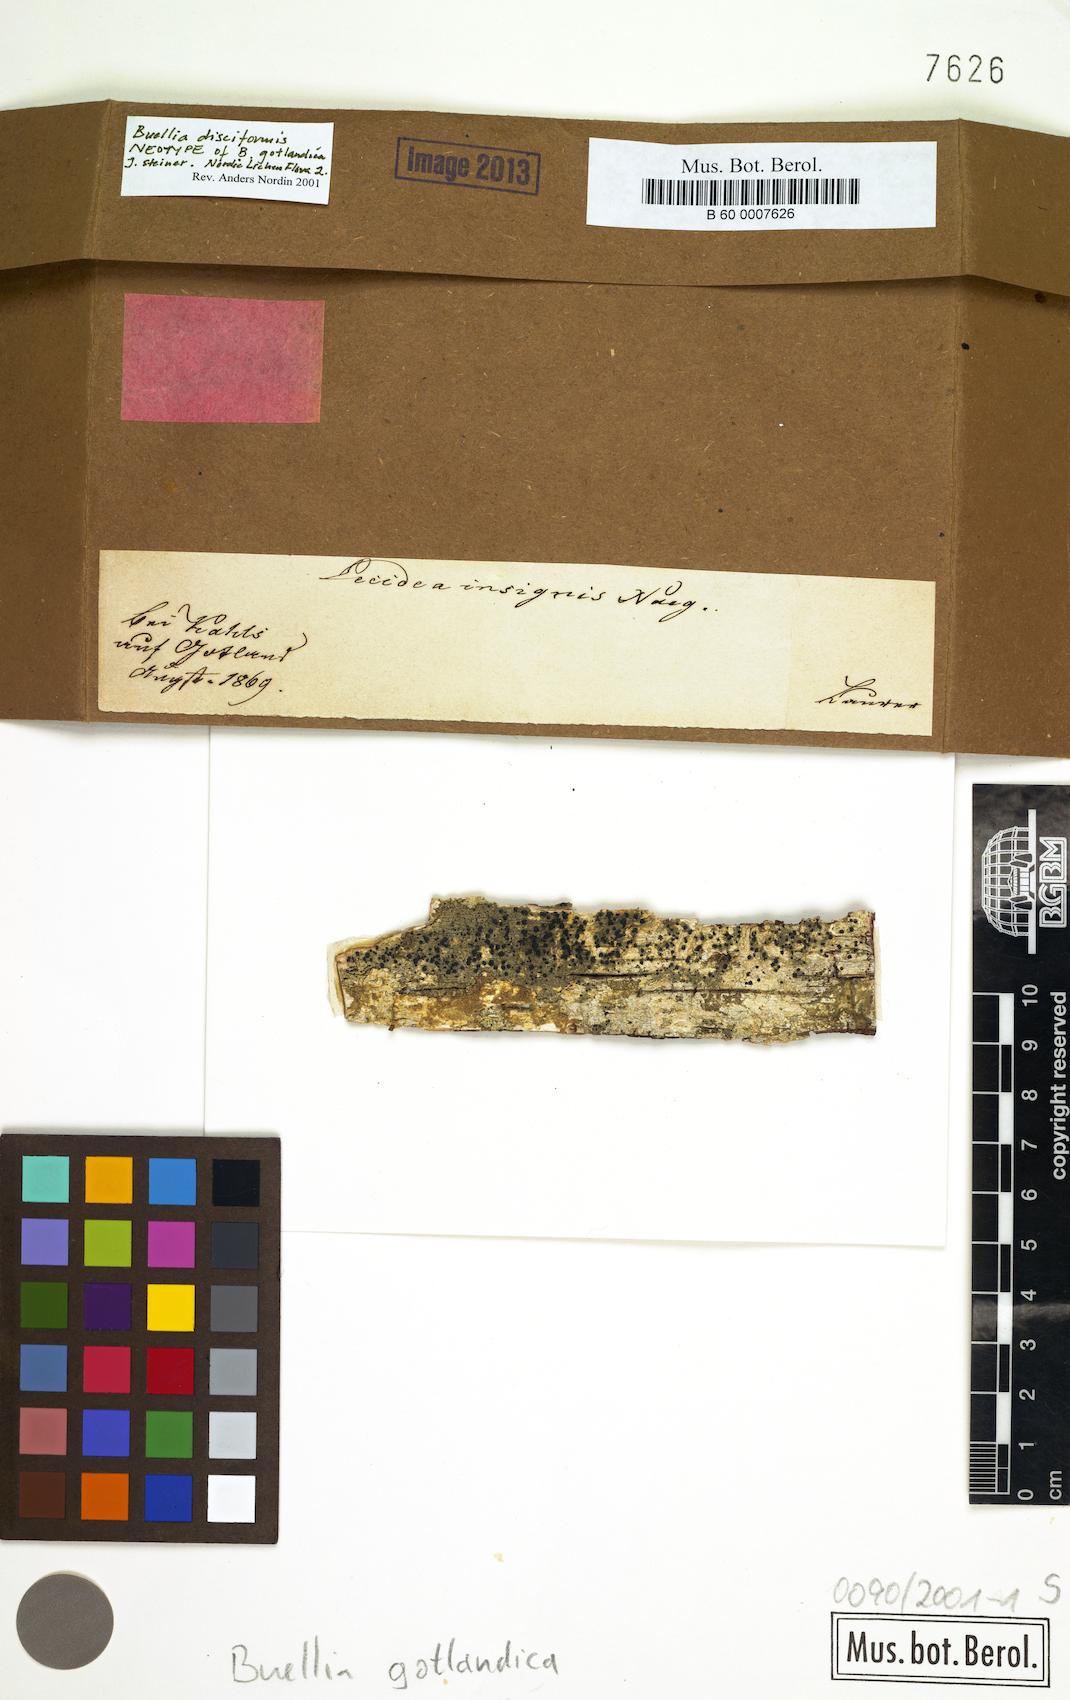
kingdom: Fungi
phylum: Ascomycota
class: Lecanoromycetes
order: Caliciales
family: Caliciaceae
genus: Tetramelas
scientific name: Tetramelas insignis
